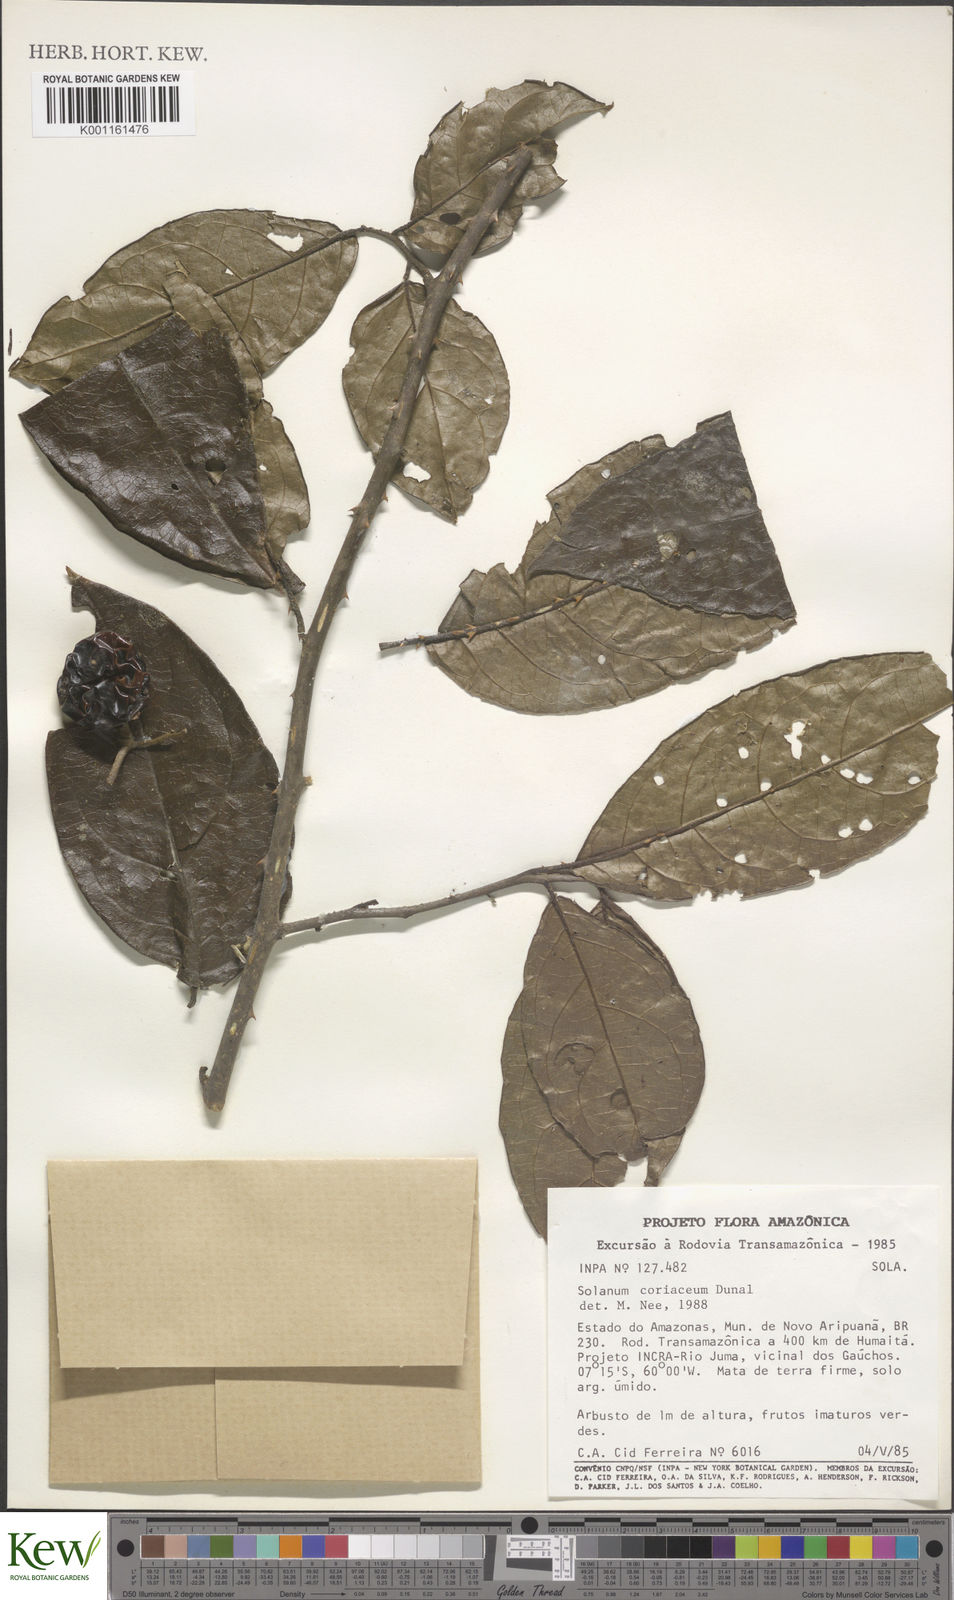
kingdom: Plantae
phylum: Tracheophyta
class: Magnoliopsida
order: Solanales
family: Solanaceae
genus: Solanum
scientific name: Solanum coriaceum
